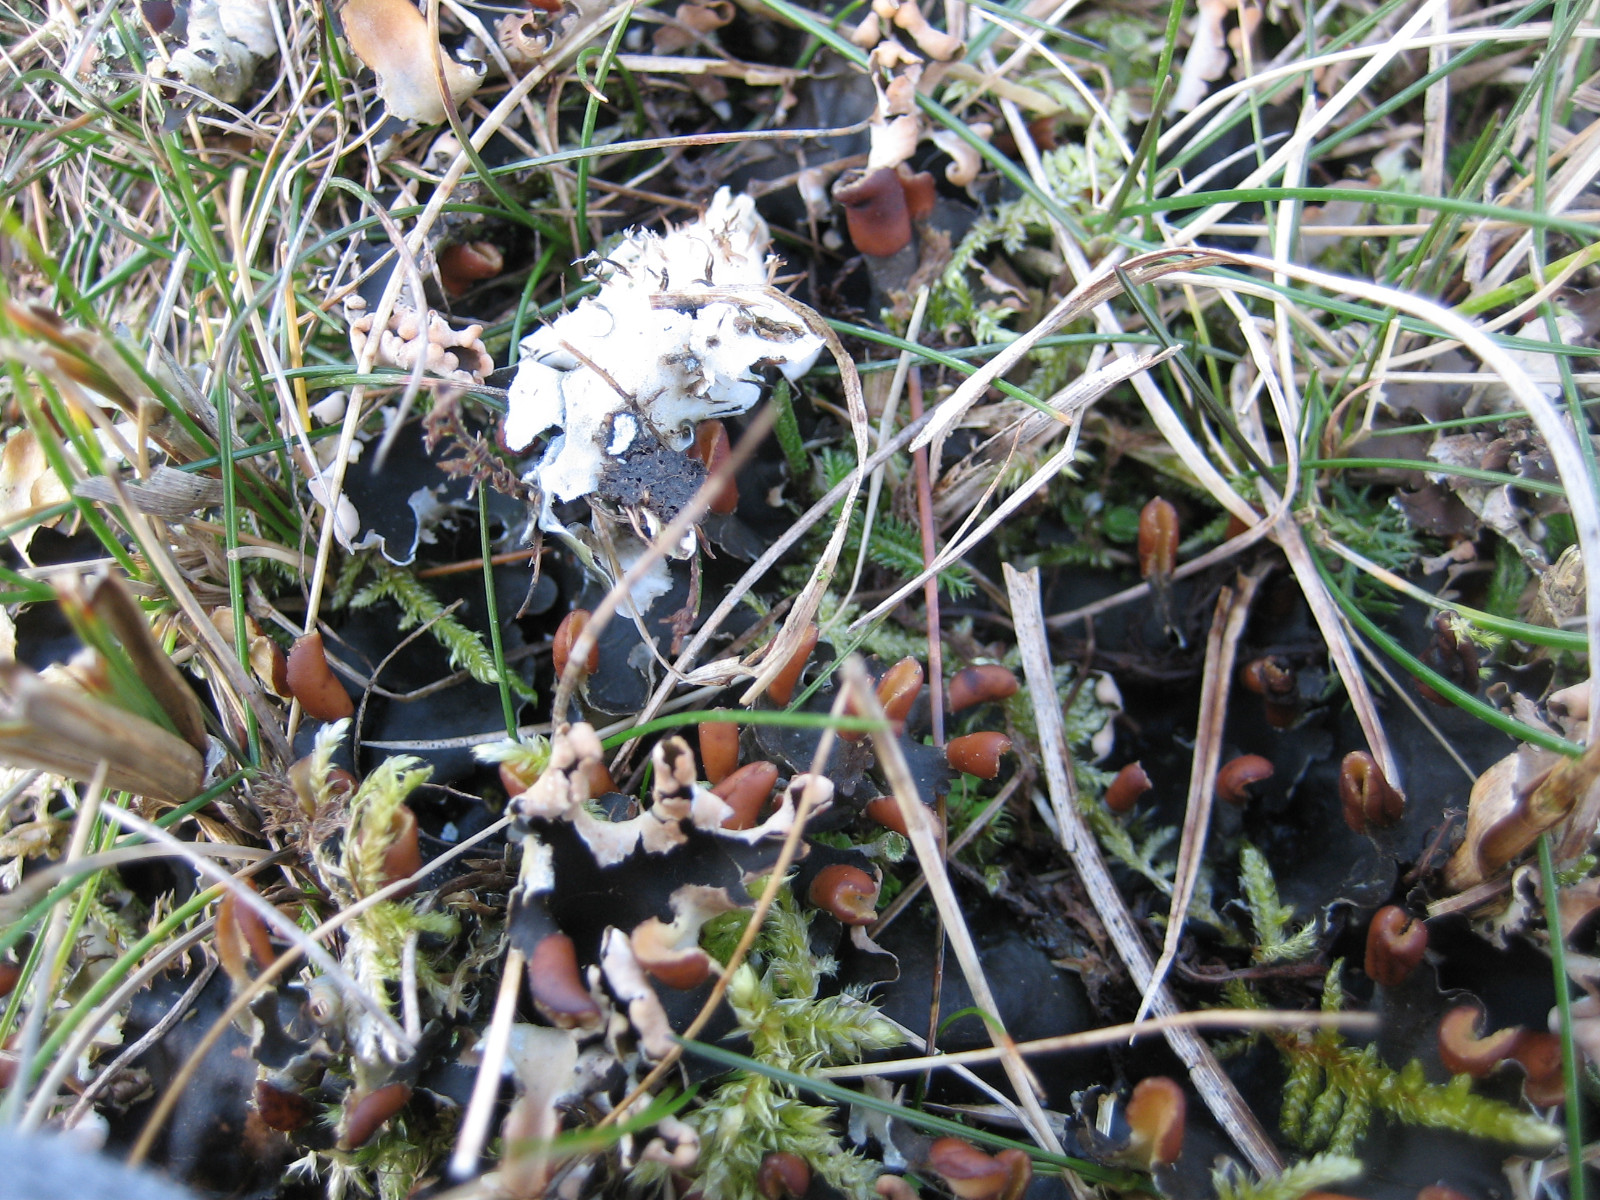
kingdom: Fungi
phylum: Ascomycota
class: Lecanoromycetes
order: Peltigerales
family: Peltigeraceae
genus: Peltigera
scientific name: Peltigera hymenina
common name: hinde-skjoldlav
